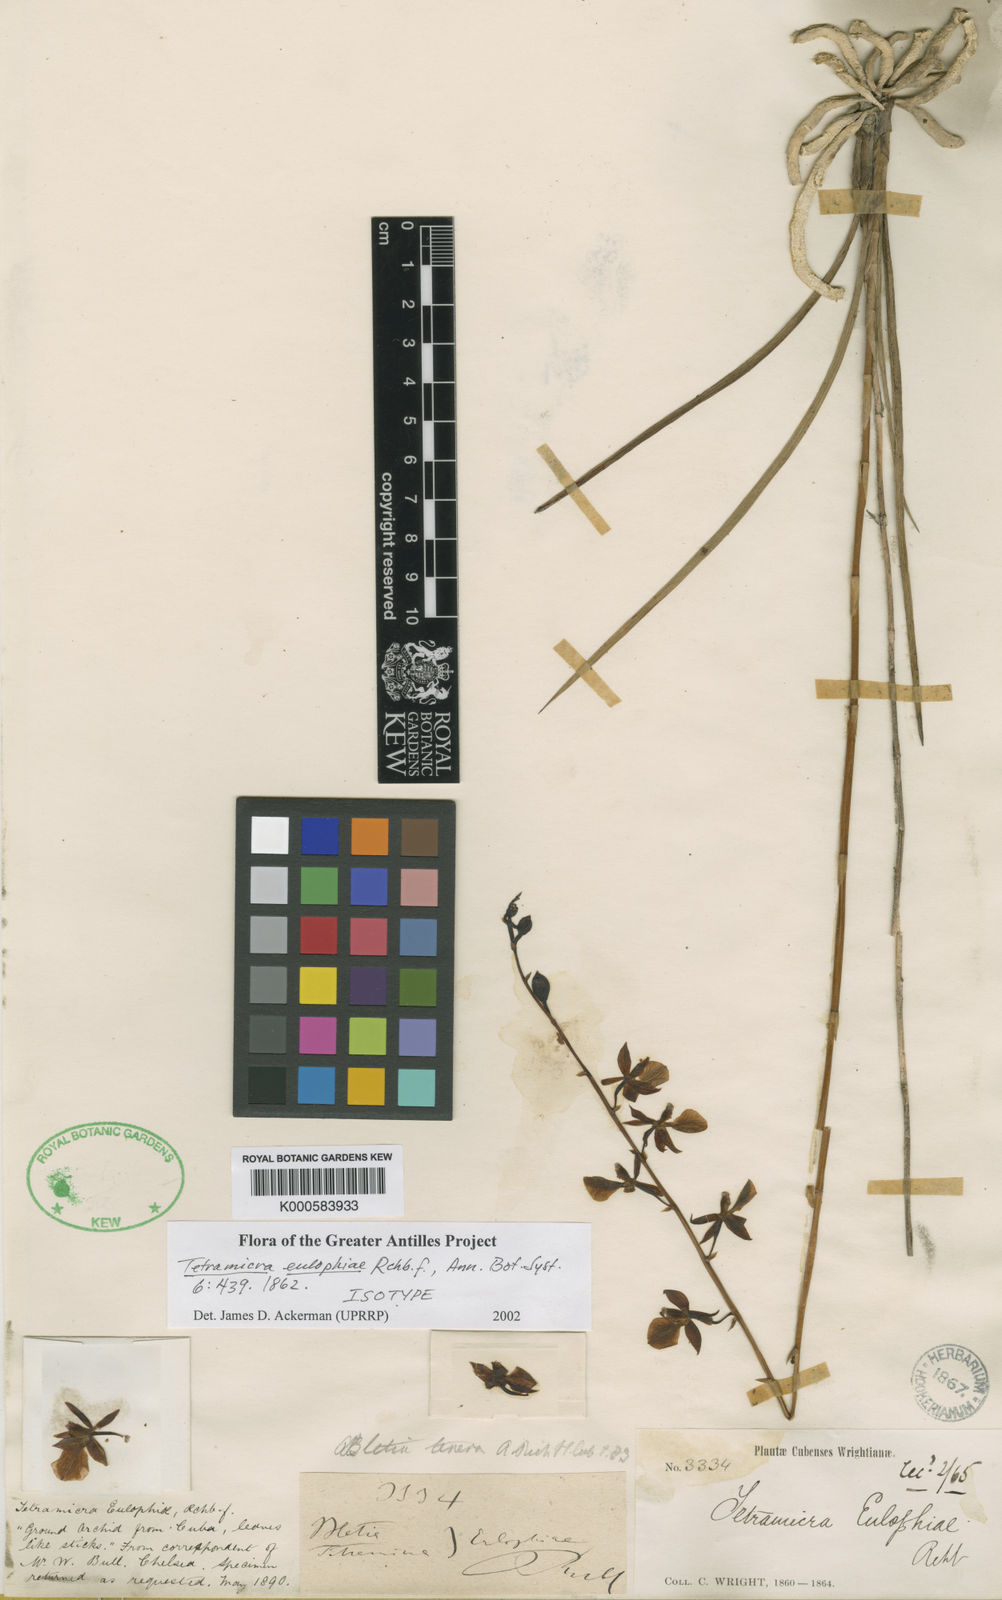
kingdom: Plantae
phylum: Tracheophyta
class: Liliopsida
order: Asparagales
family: Orchidaceae
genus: Tetramicra
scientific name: Tetramicra tenera
